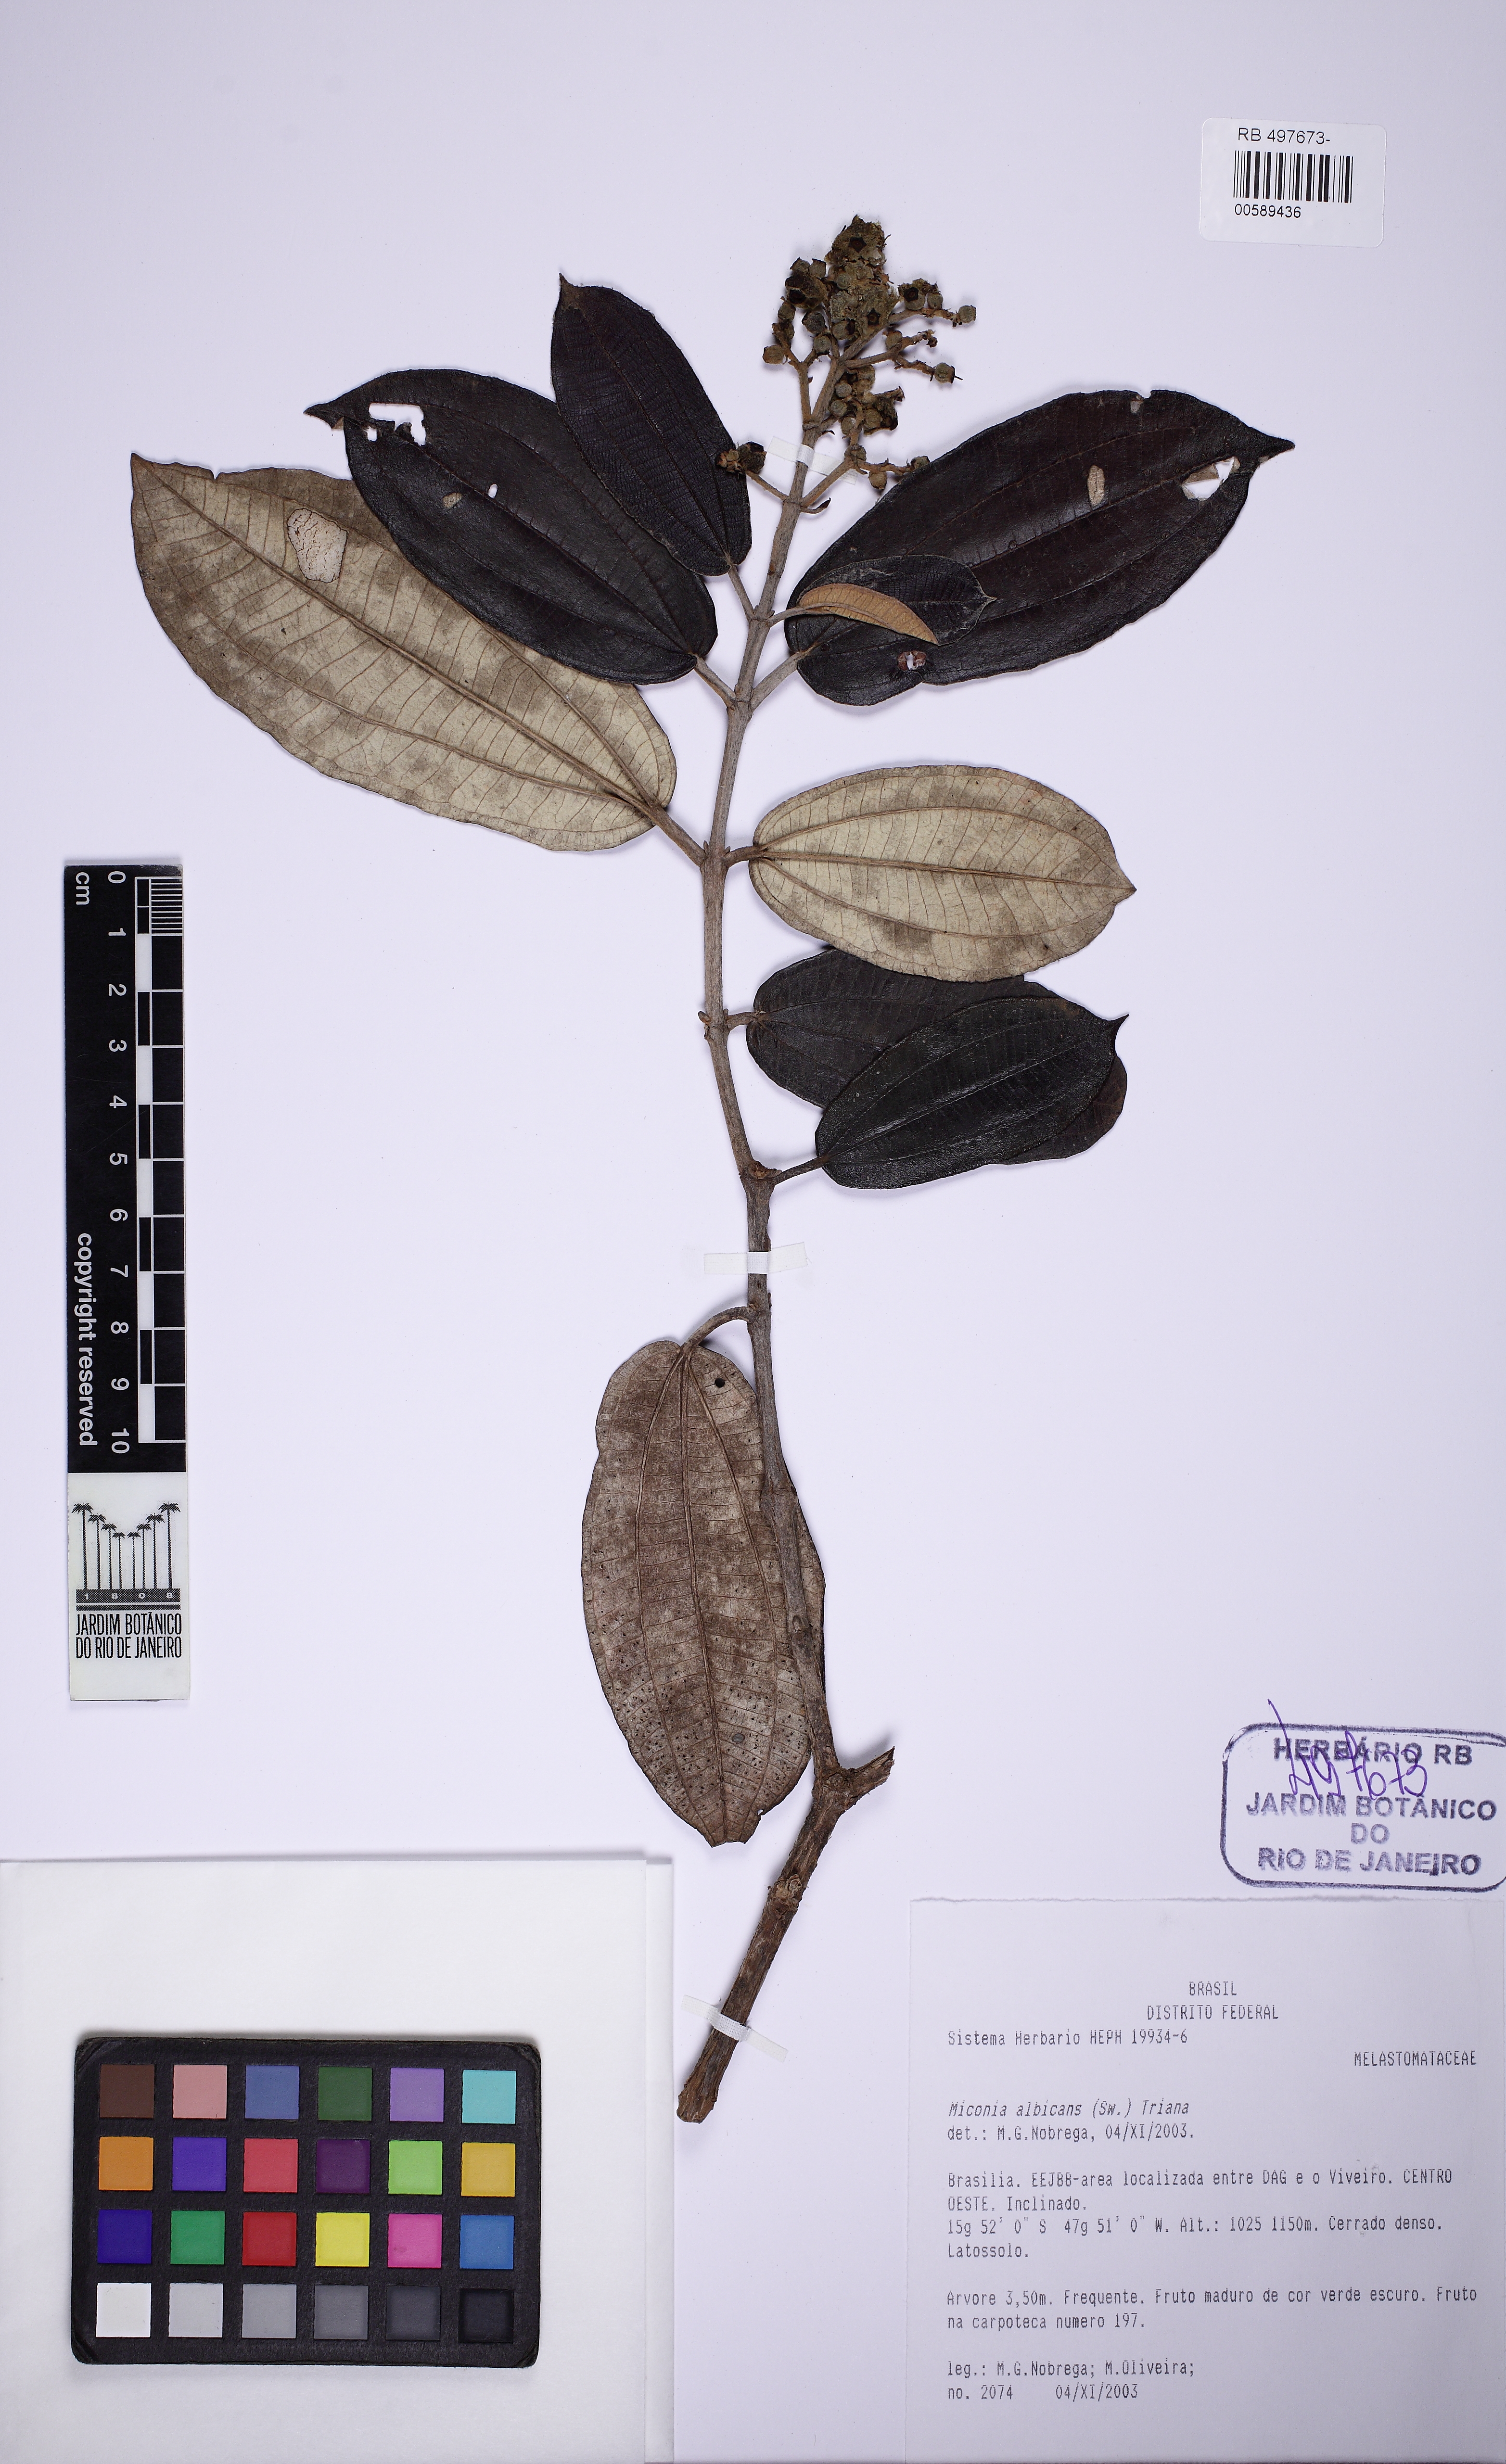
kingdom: Plantae
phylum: Tracheophyta
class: Magnoliopsida
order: Myrtales
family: Melastomataceae
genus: Miconia
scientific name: Miconia albicans
